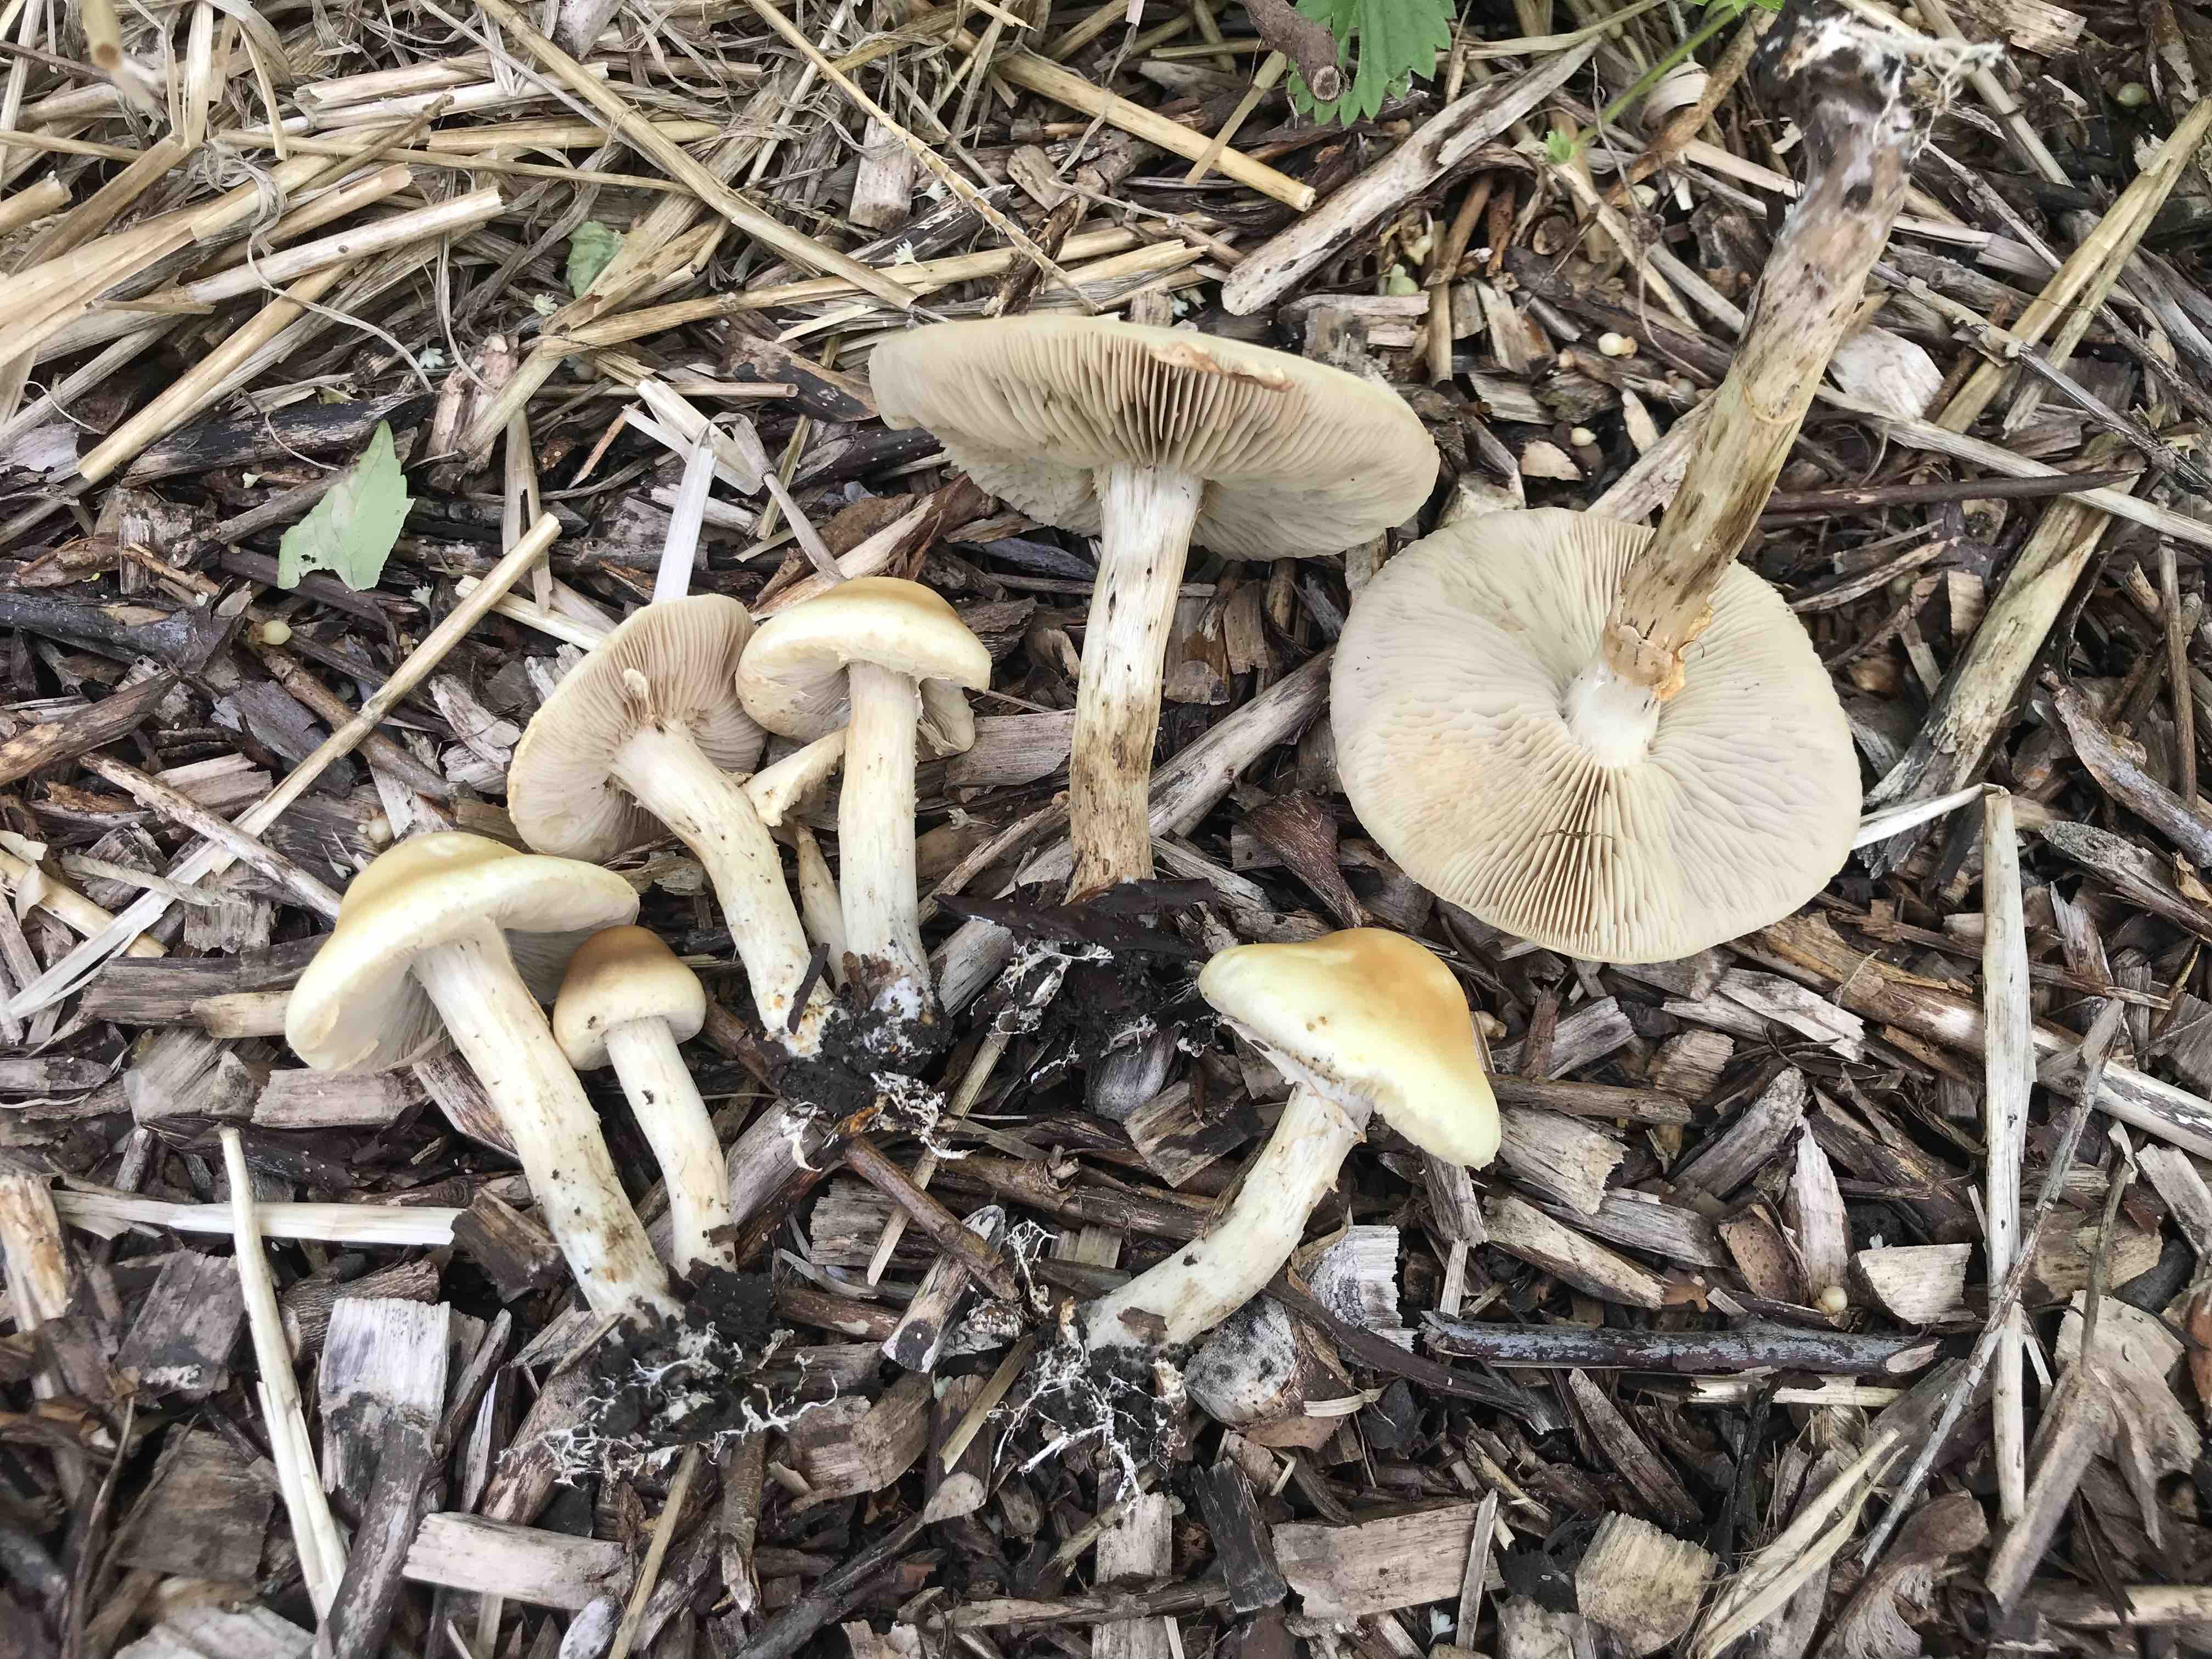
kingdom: Fungi
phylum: Basidiomycota
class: Agaricomycetes
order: Agaricales
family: Strophariaceae
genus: Agrocybe
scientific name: Agrocybe praecox
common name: tidlig agerhat
